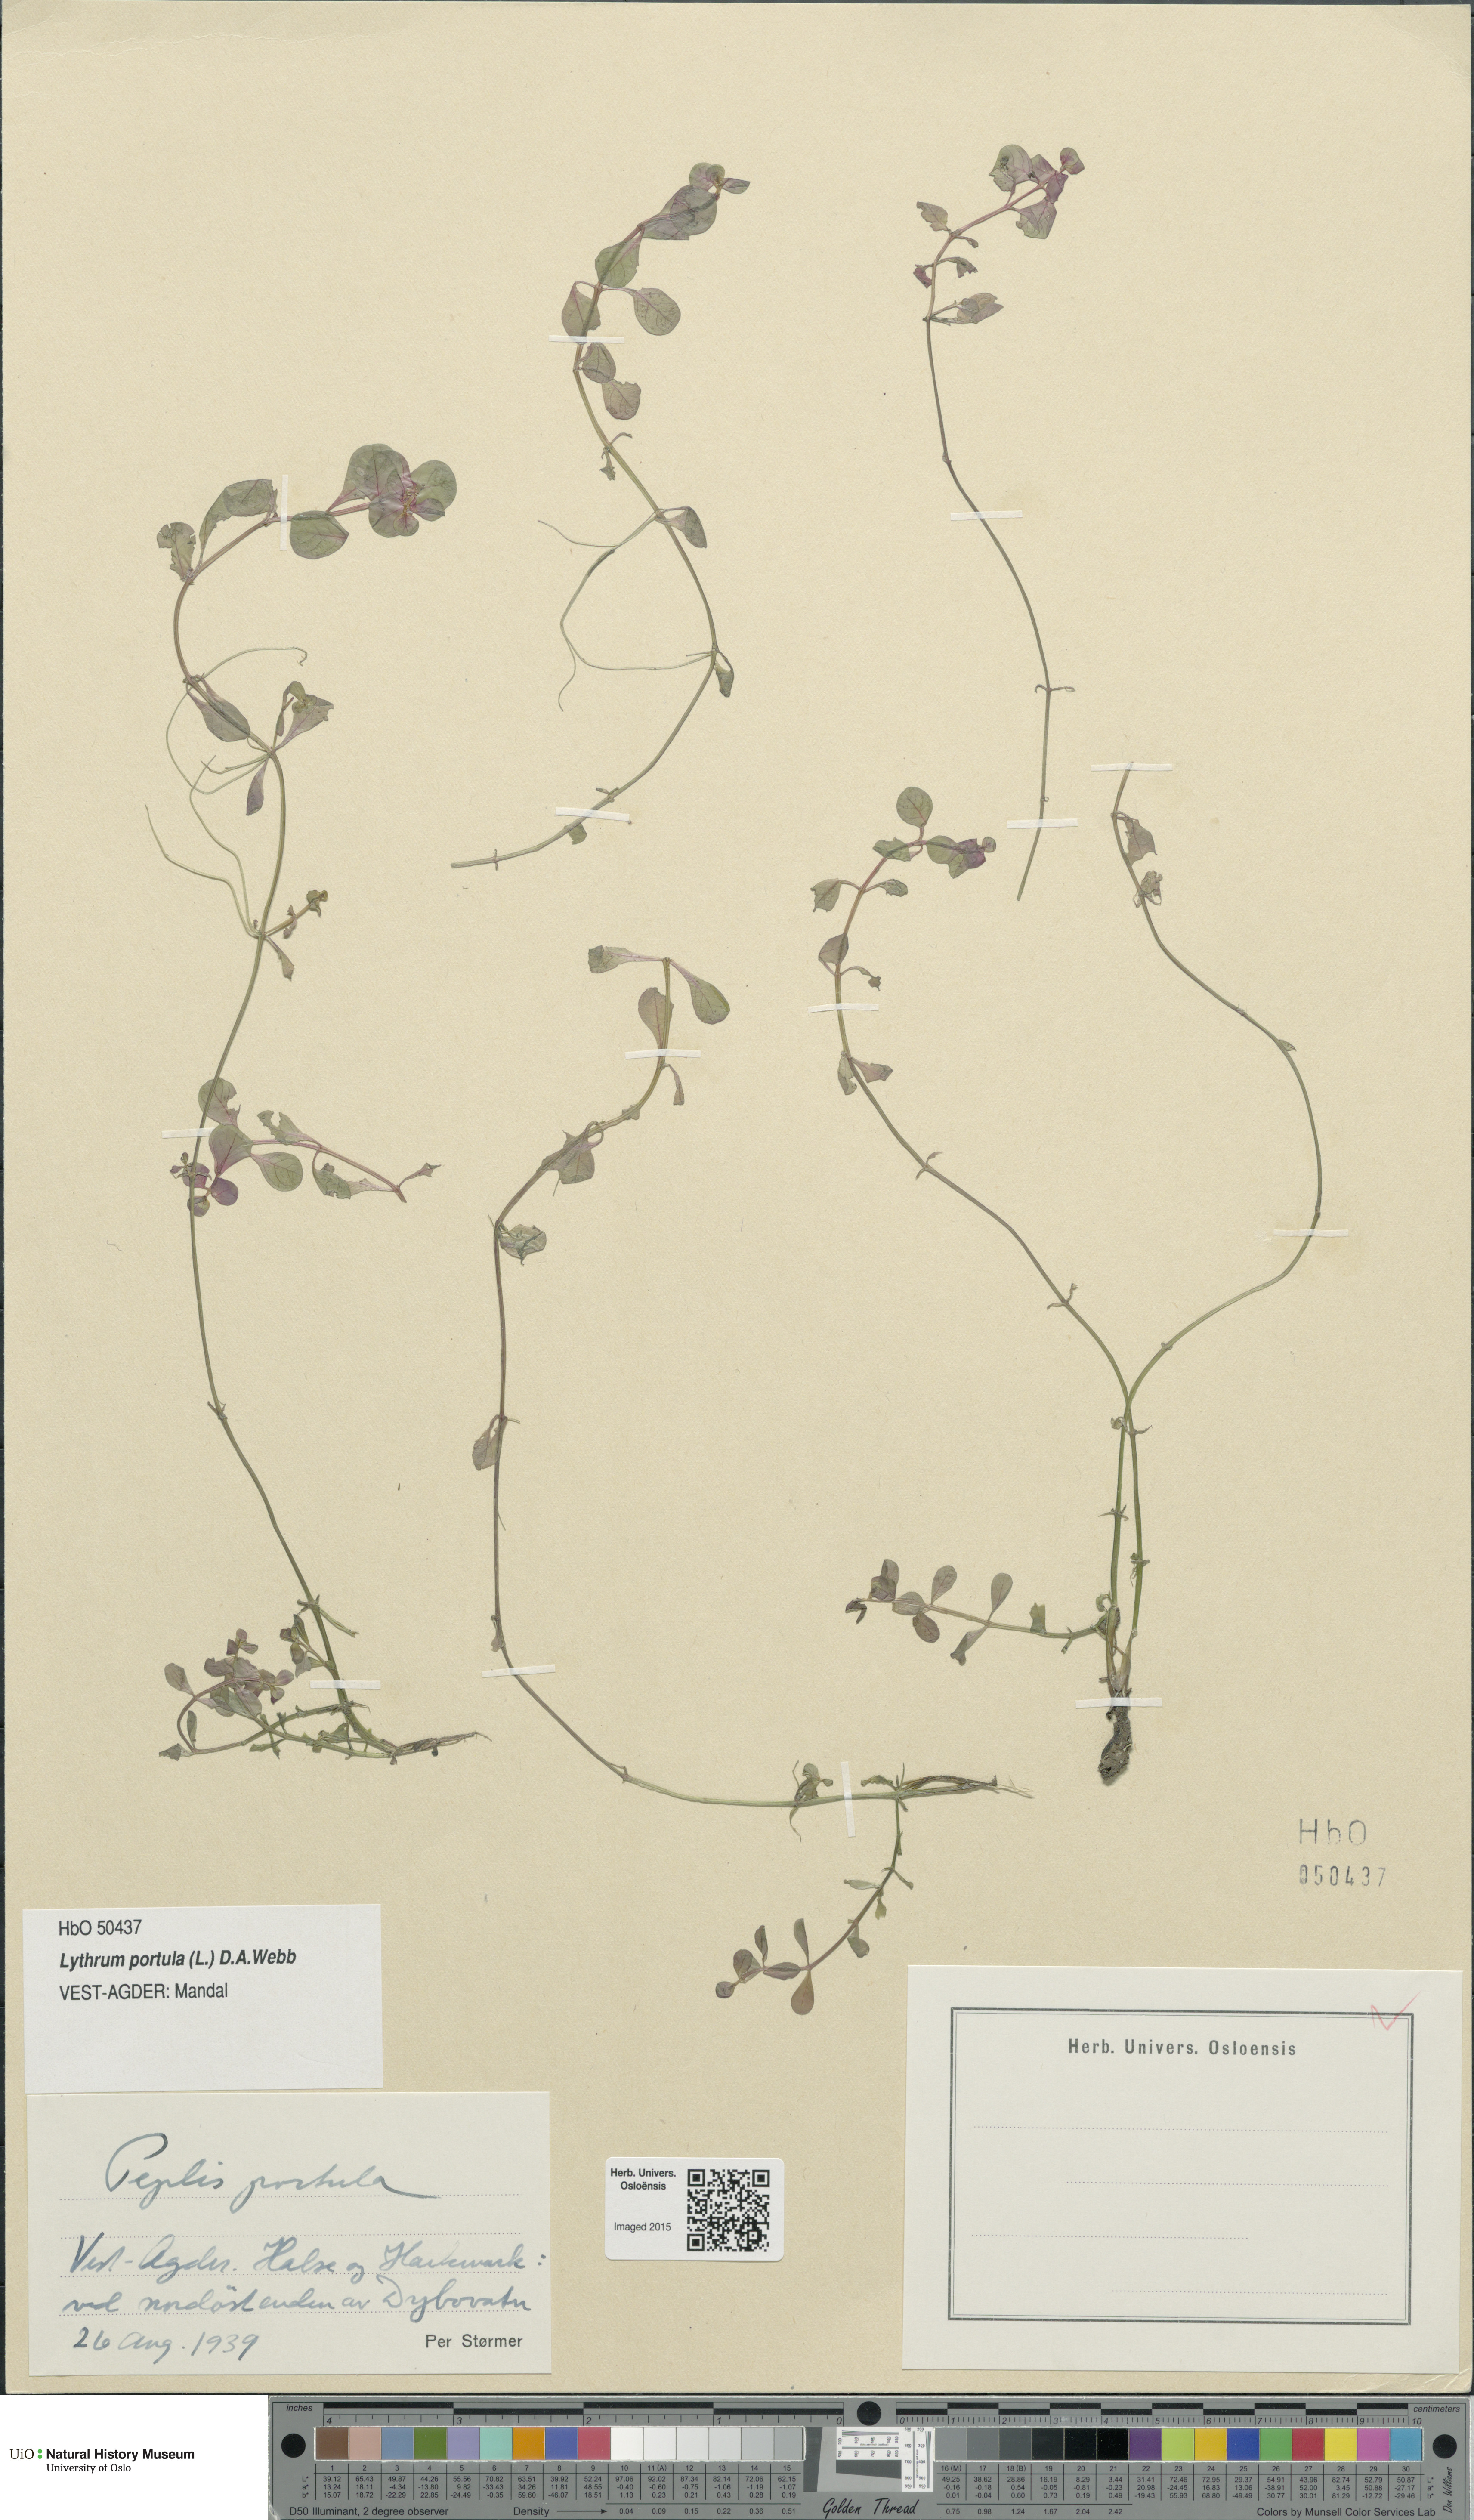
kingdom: Plantae
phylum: Tracheophyta
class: Magnoliopsida
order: Myrtales
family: Lythraceae
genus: Lythrum
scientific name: Lythrum portula
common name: Water purslane
